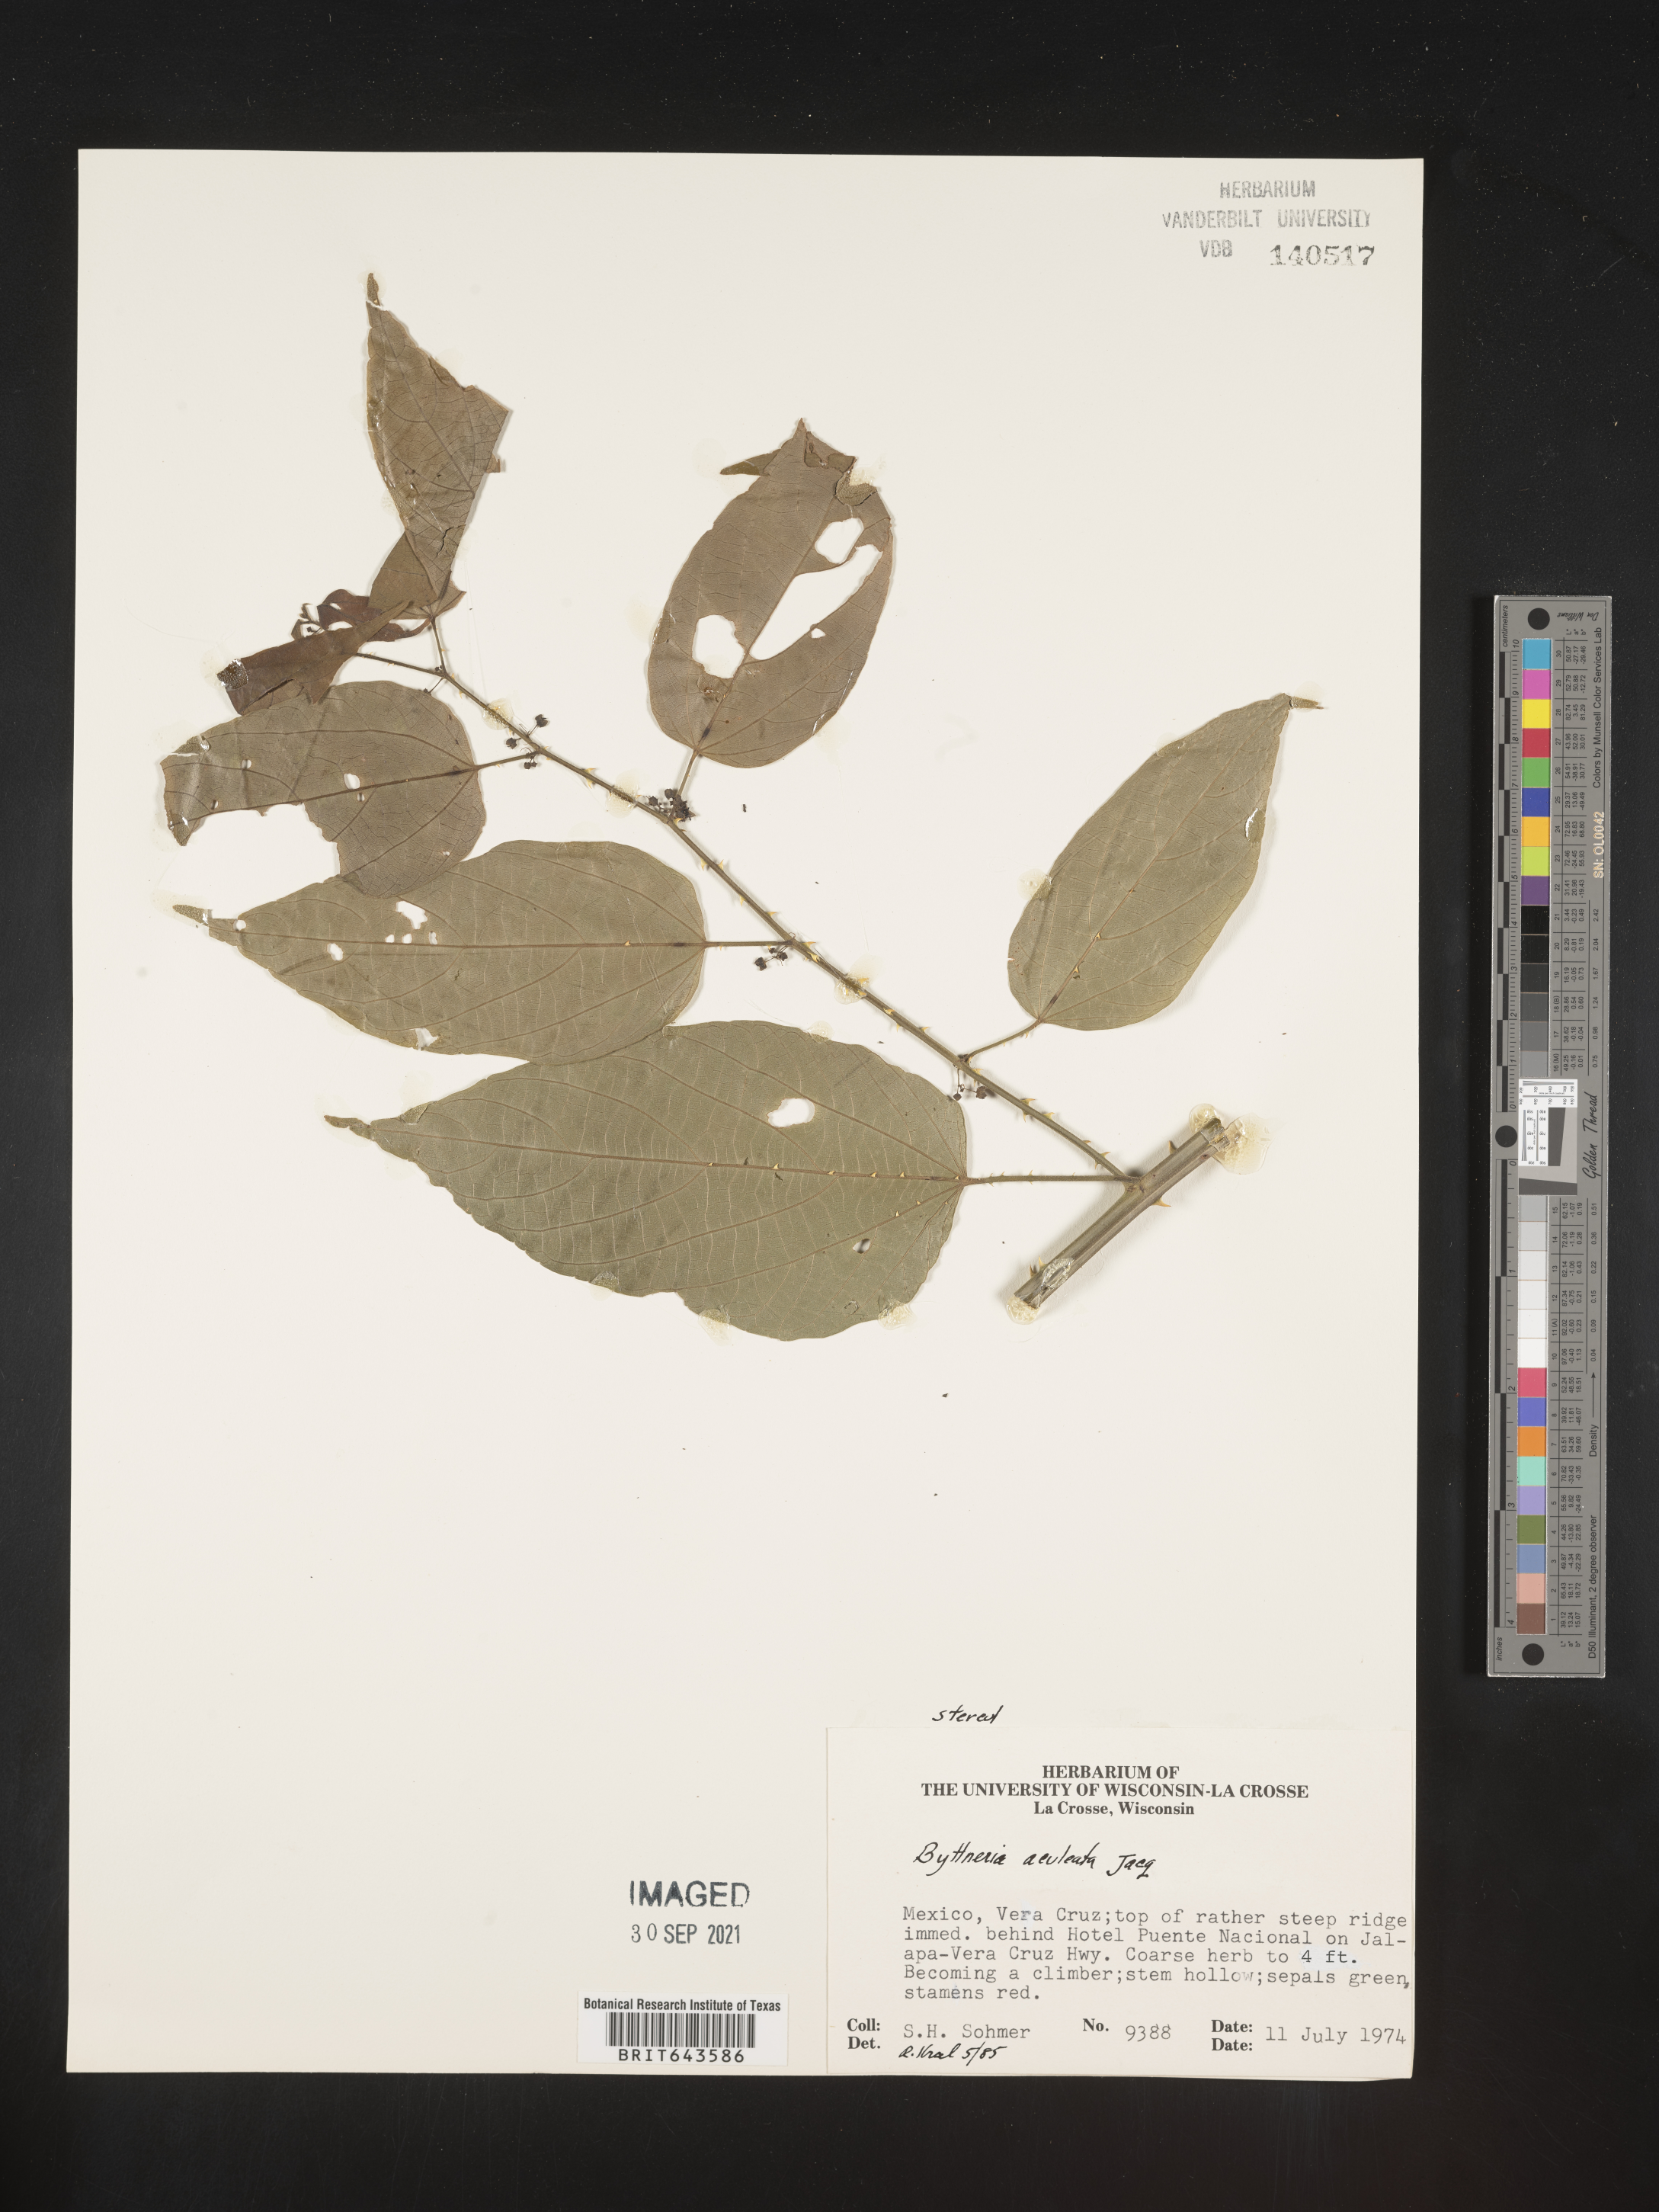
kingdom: Plantae
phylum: Tracheophyta
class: Magnoliopsida
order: Malvales
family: Malvaceae
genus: Byttneria
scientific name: Byttneria
